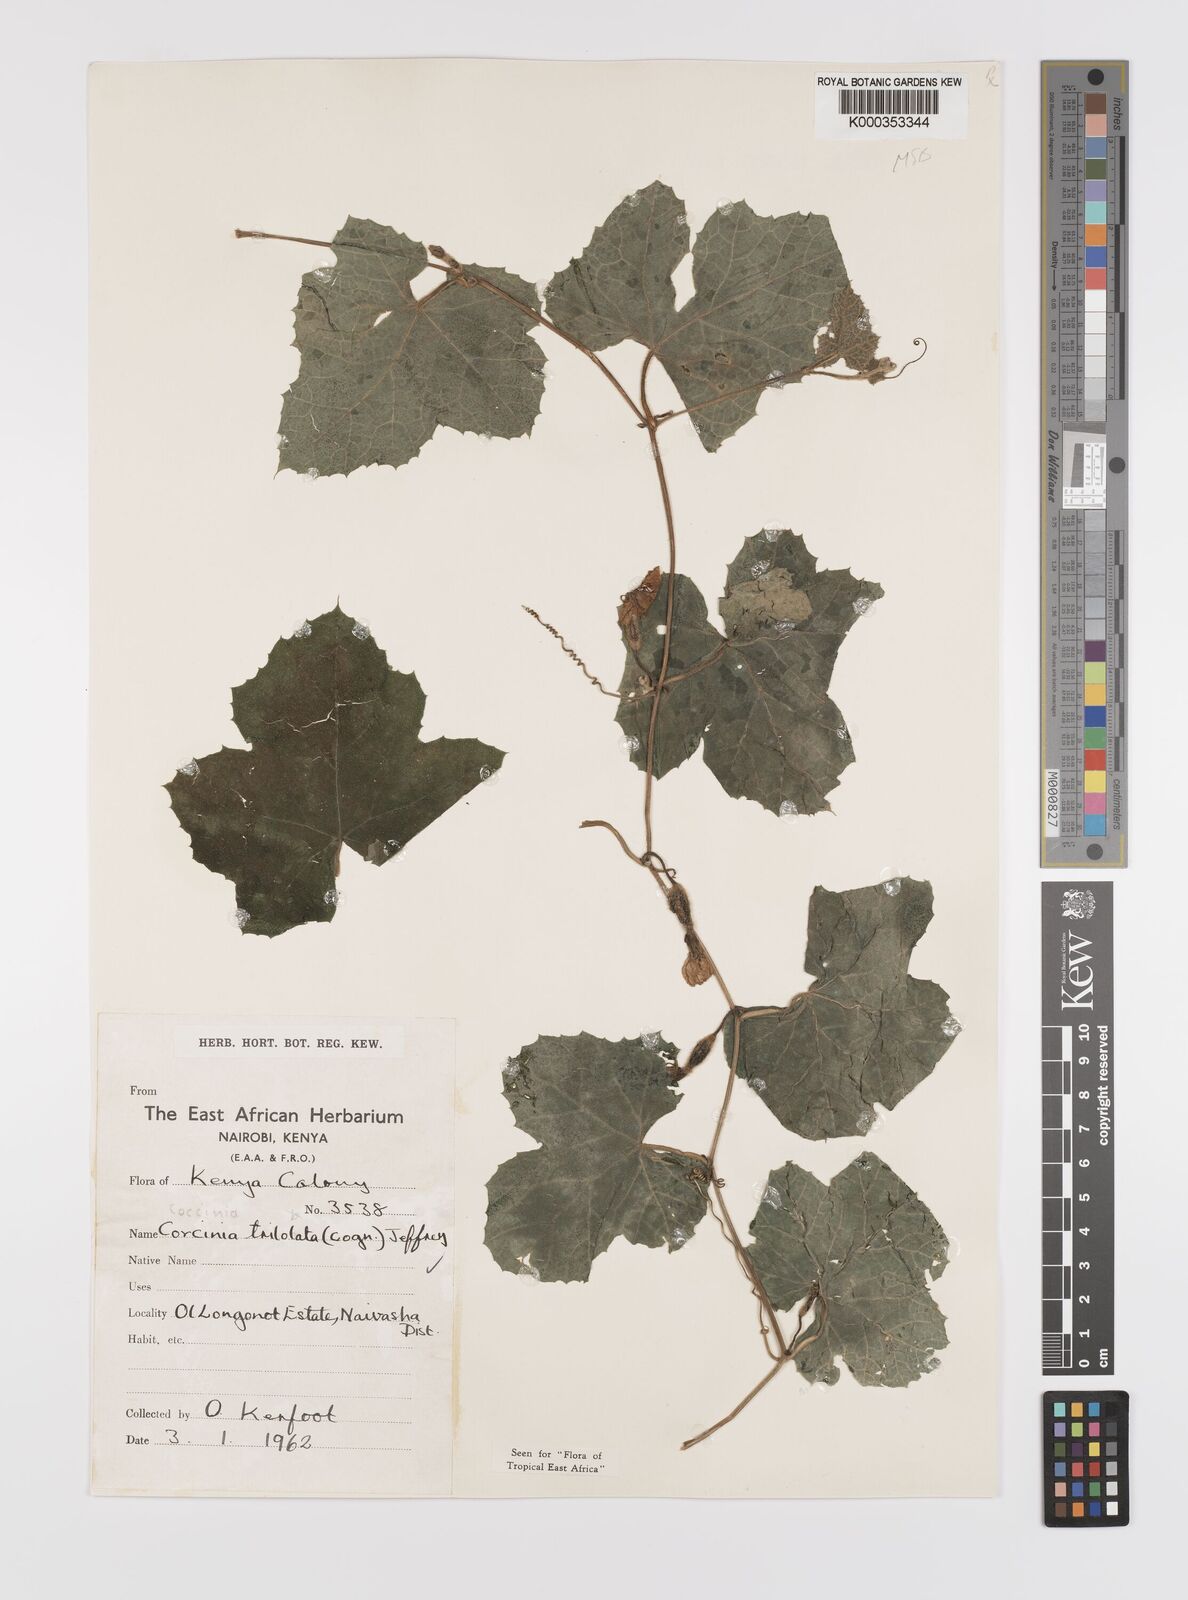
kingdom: Plantae
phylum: Tracheophyta
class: Magnoliopsida
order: Cucurbitales
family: Cucurbitaceae
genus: Coccinia
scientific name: Coccinia trilobata
